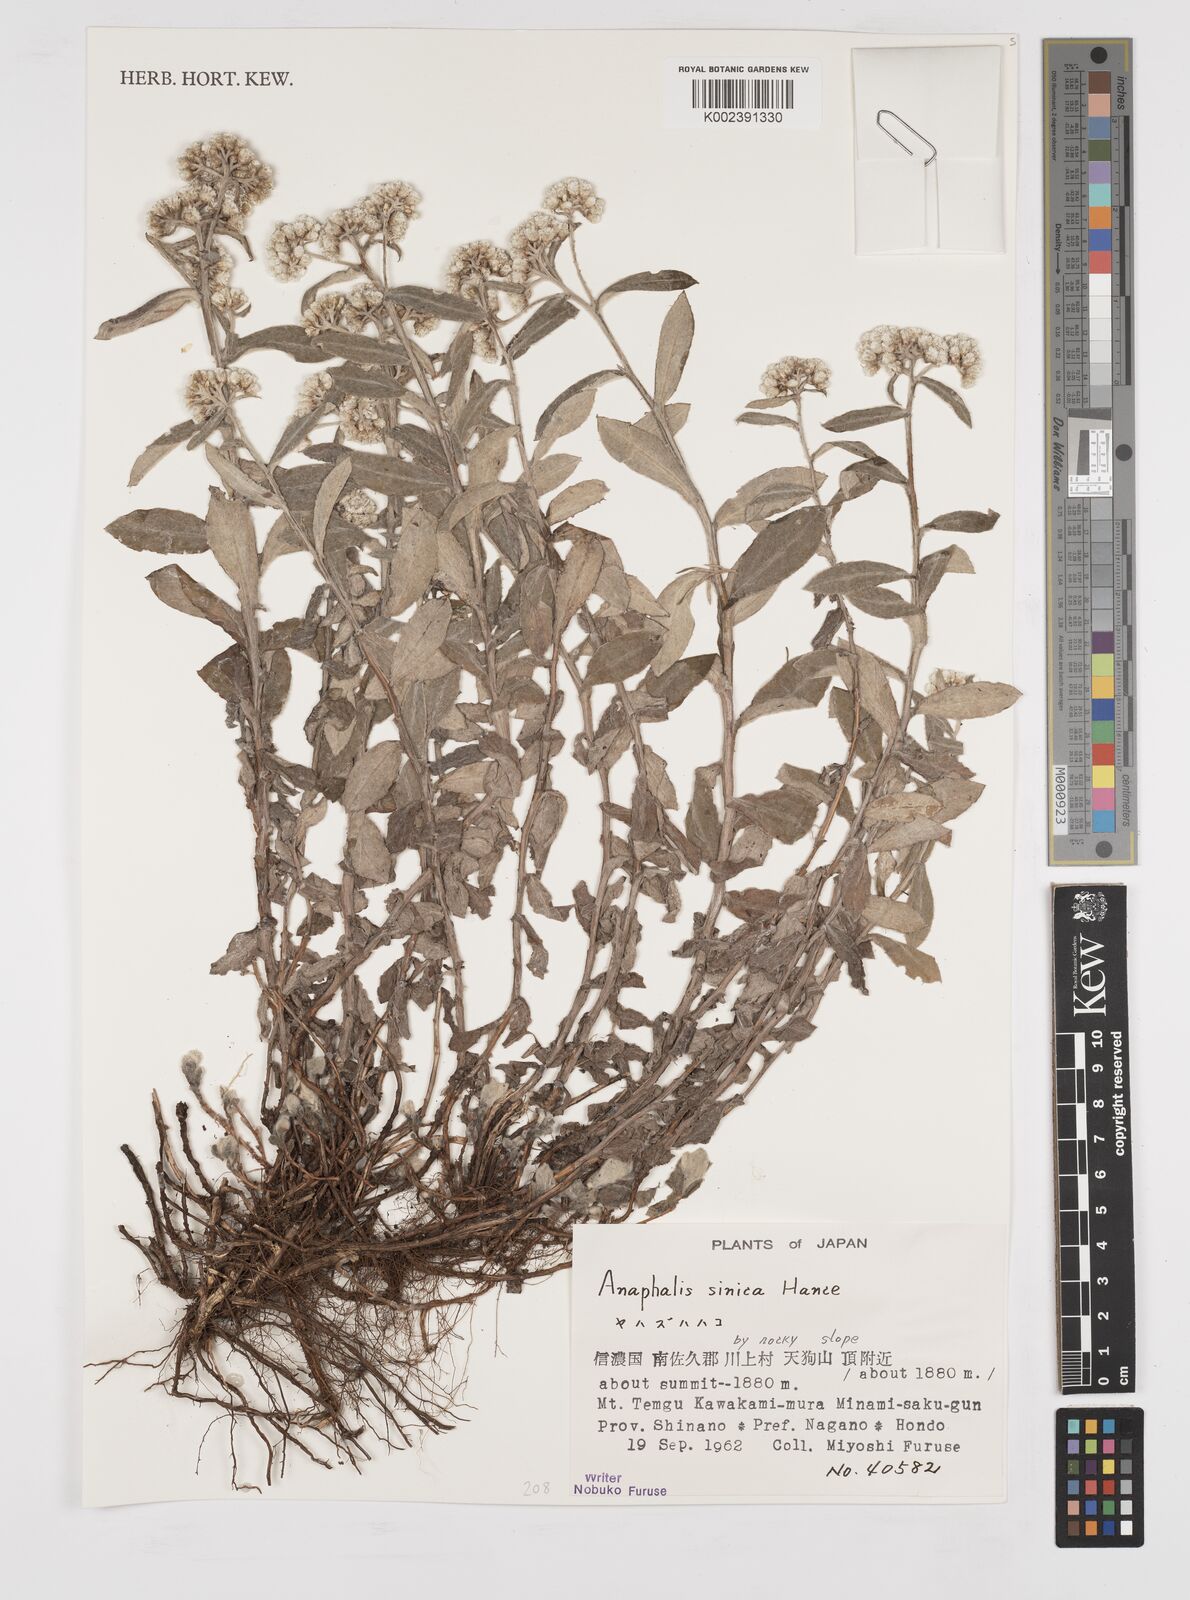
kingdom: Plantae
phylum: Tracheophyta
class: Magnoliopsida
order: Asterales
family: Asteraceae
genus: Anaphalis
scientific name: Anaphalis sinica
